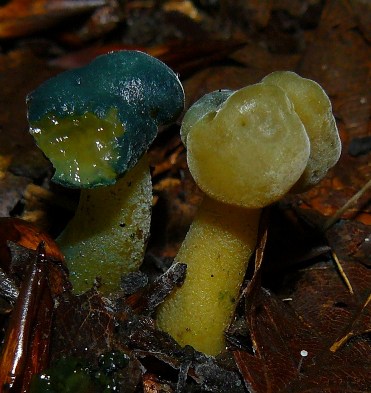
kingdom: Fungi
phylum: Ascomycota
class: Leotiomycetes
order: Leotiales
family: Leotiaceae
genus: Leotia
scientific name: Leotia lubrica
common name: ravsvamp
